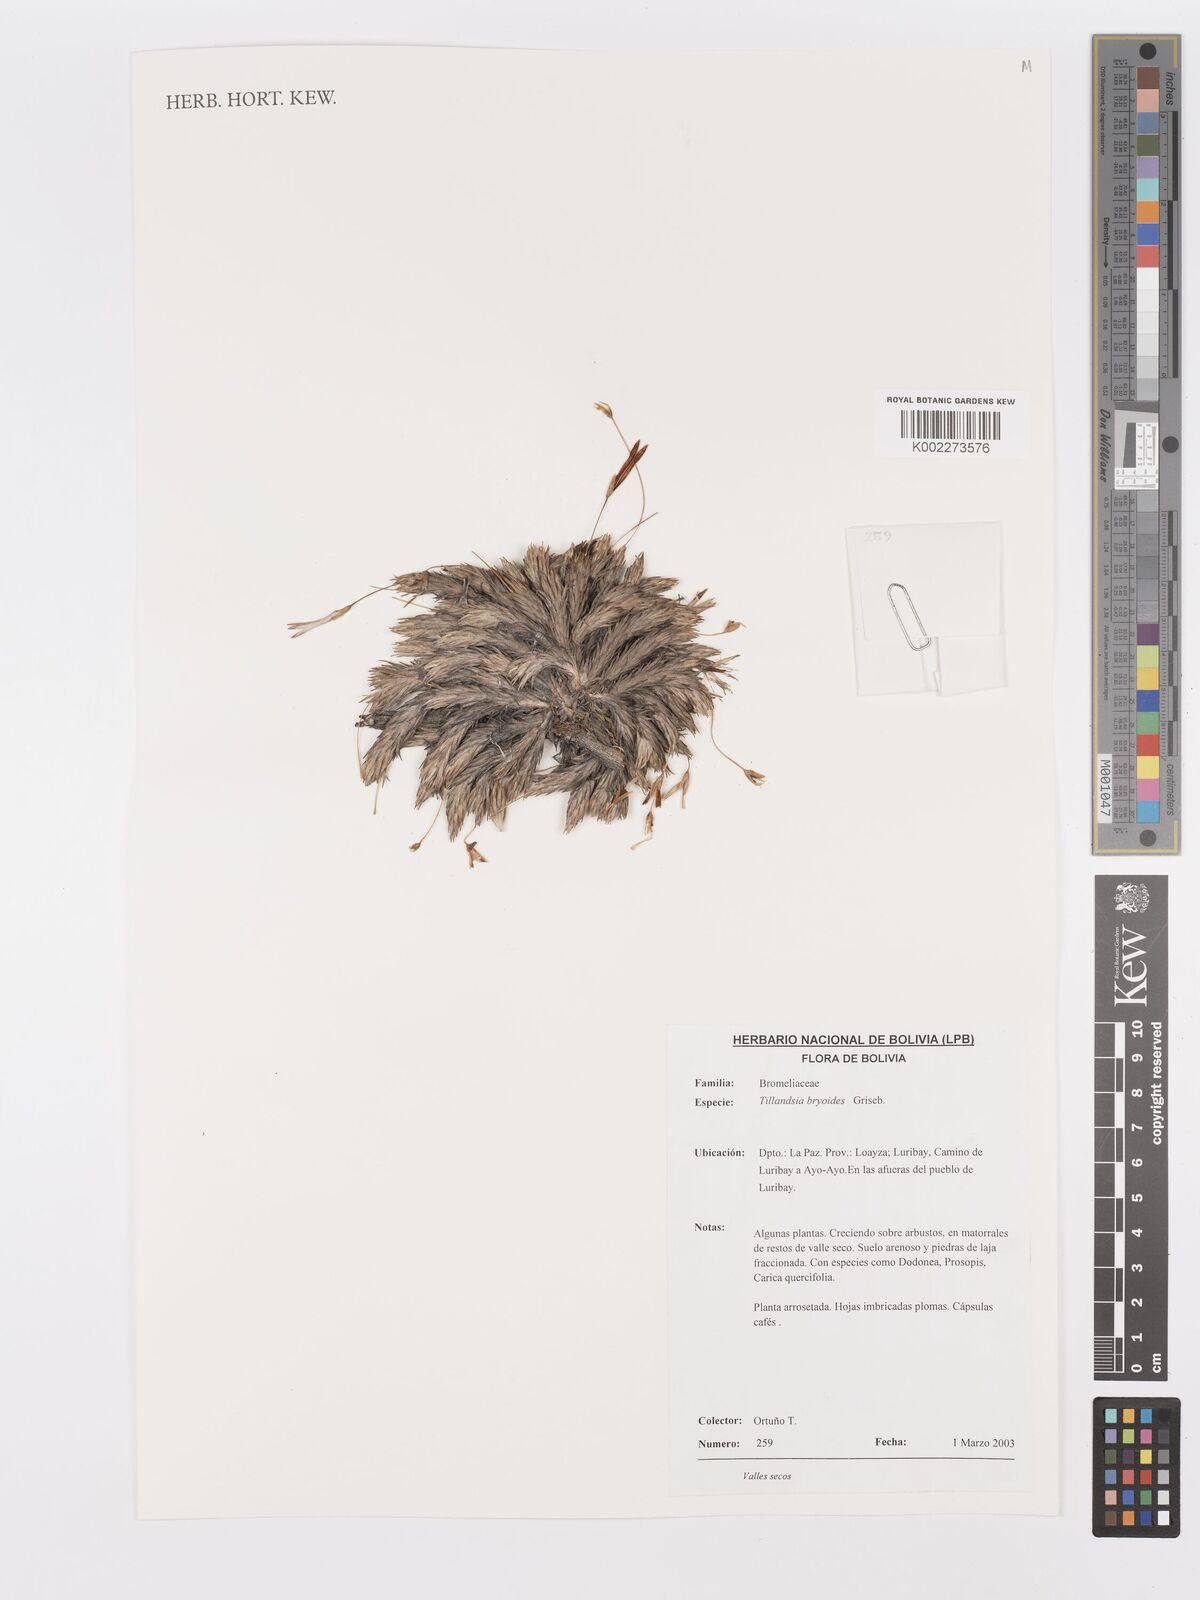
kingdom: Plantae
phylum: Tracheophyta
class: Liliopsida
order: Poales
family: Bromeliaceae
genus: Tillandsia
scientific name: Tillandsia tricholepis
